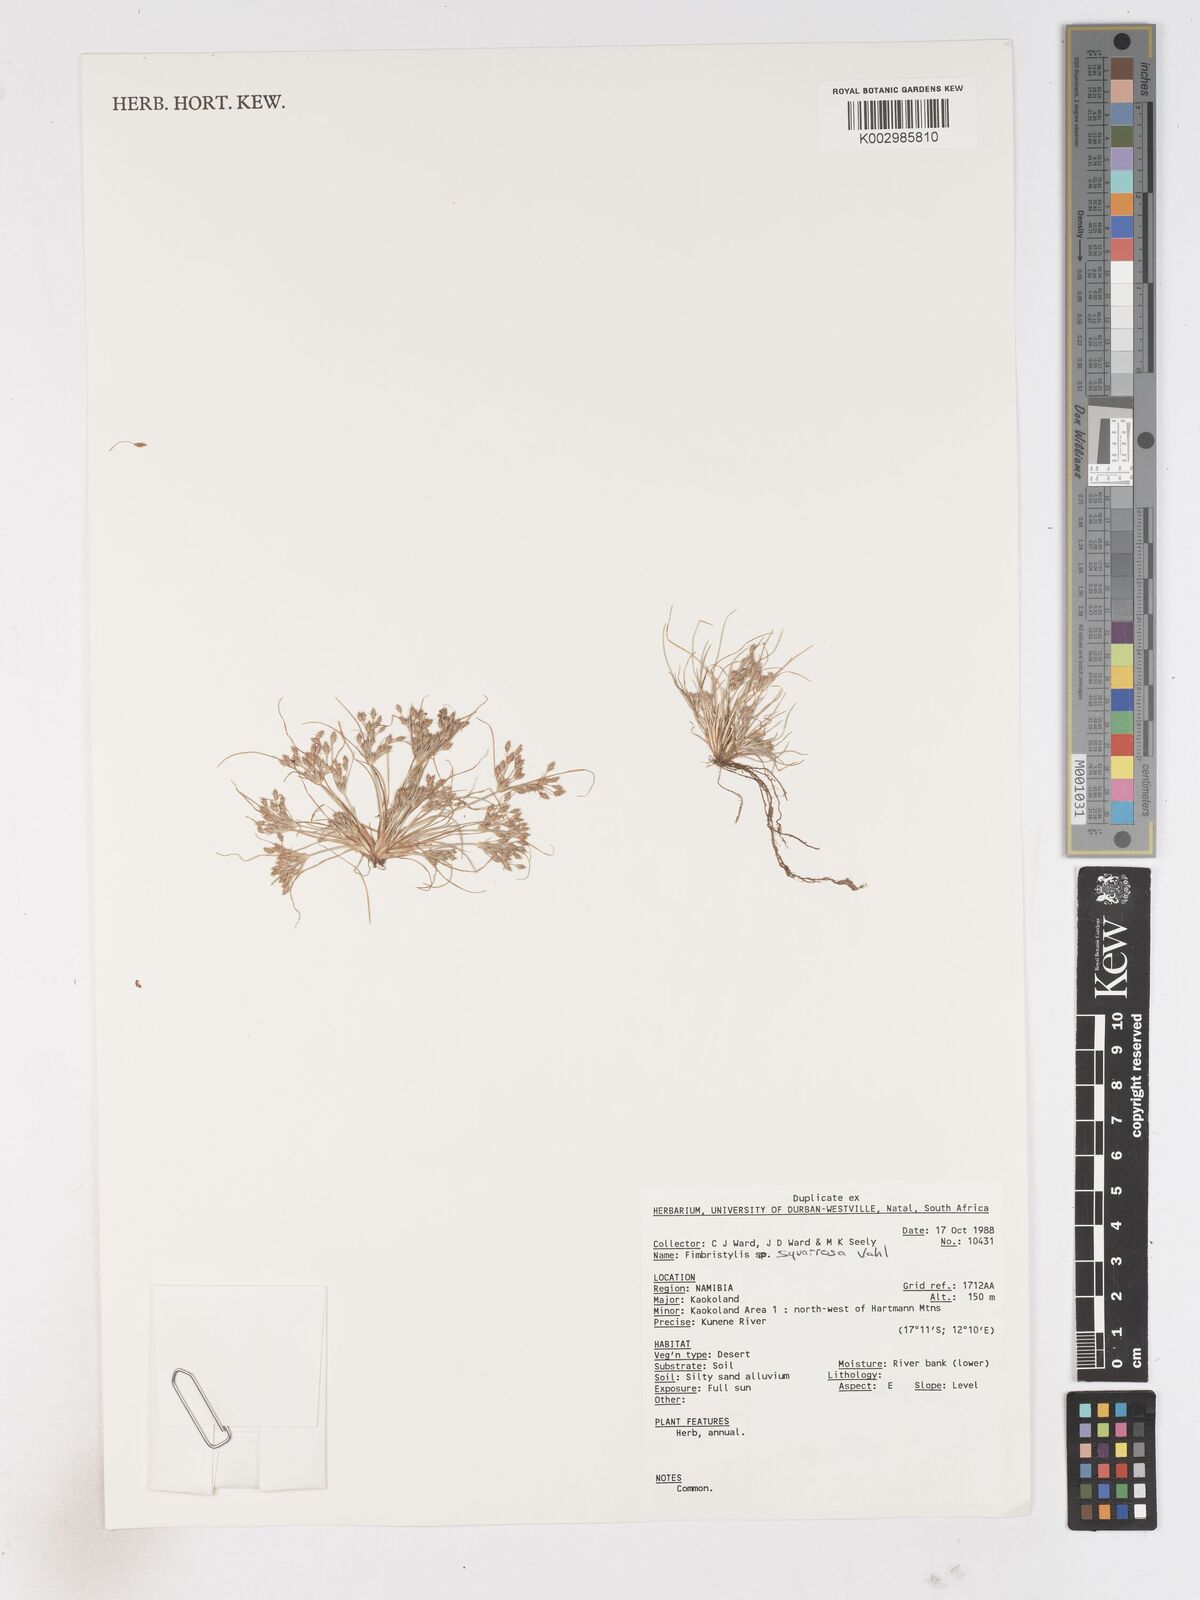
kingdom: Plantae
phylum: Tracheophyta
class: Liliopsida
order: Poales
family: Cyperaceae
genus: Fimbristylis
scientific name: Fimbristylis squarrosa
